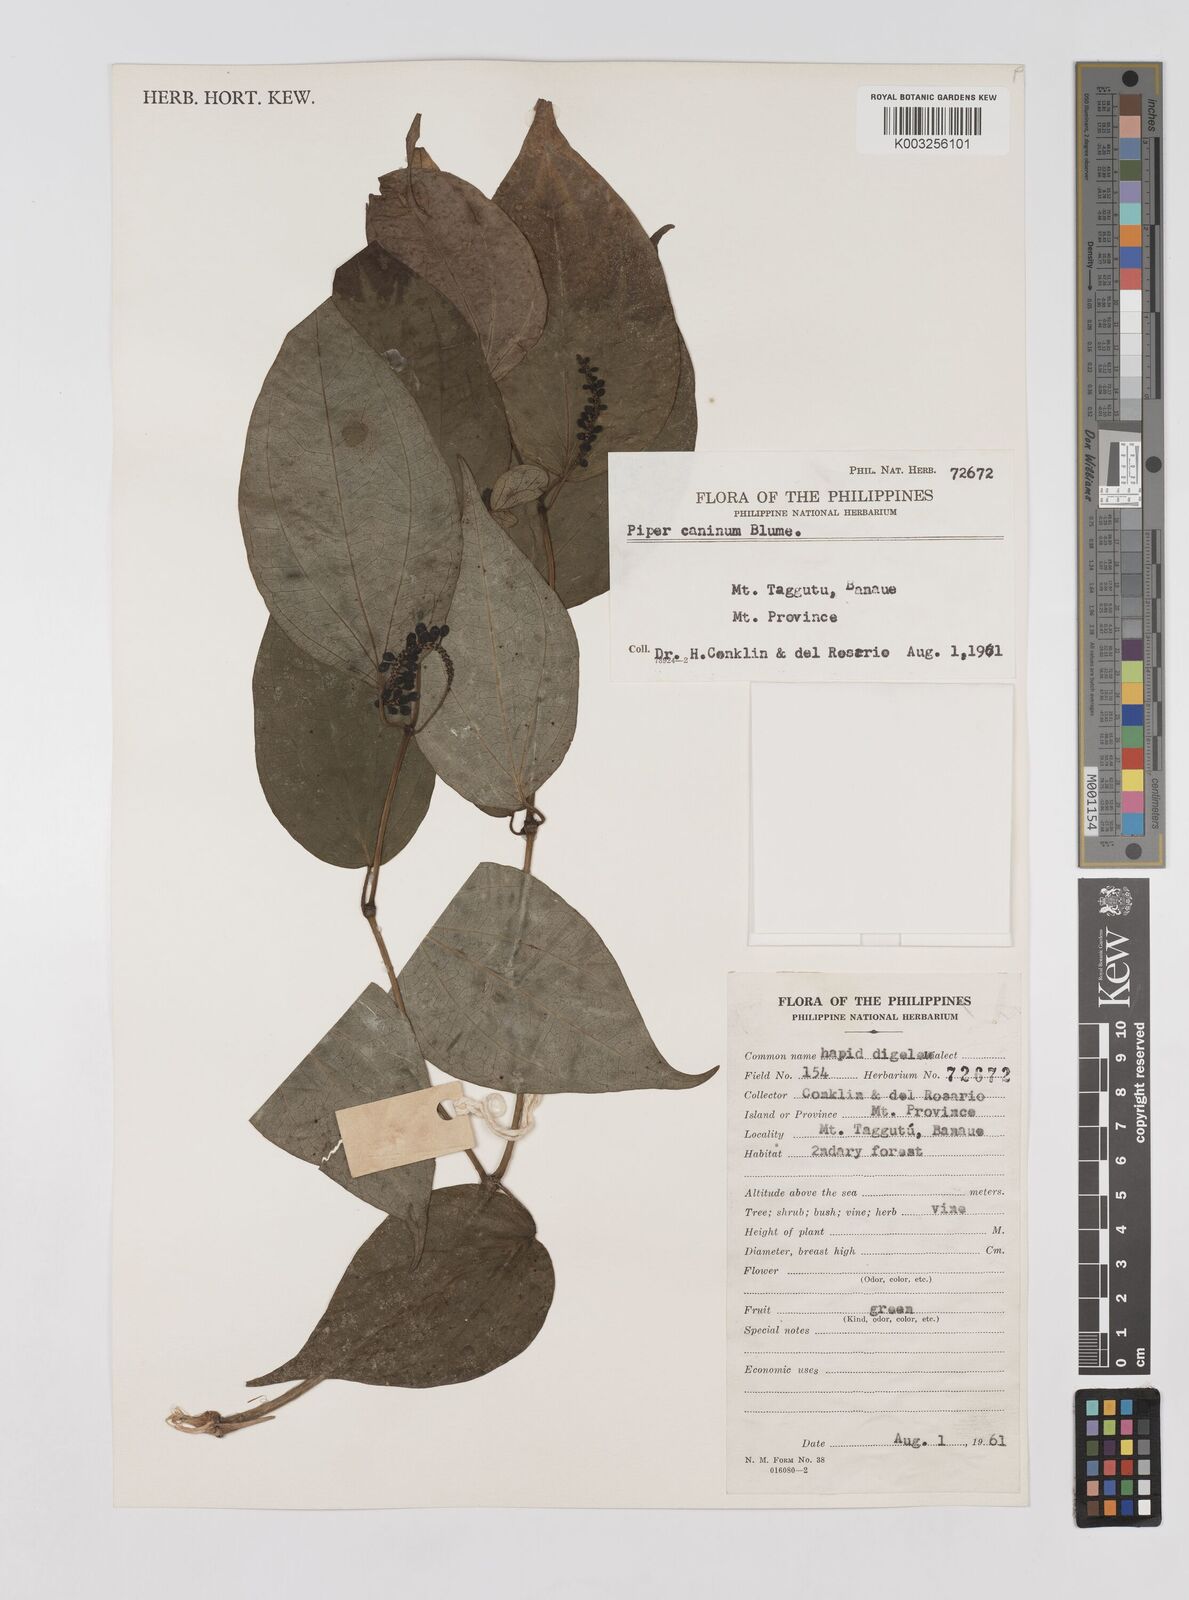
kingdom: Plantae
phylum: Tracheophyta
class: Magnoliopsida
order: Piperales
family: Piperaceae
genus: Piper
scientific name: Piper lanatum
